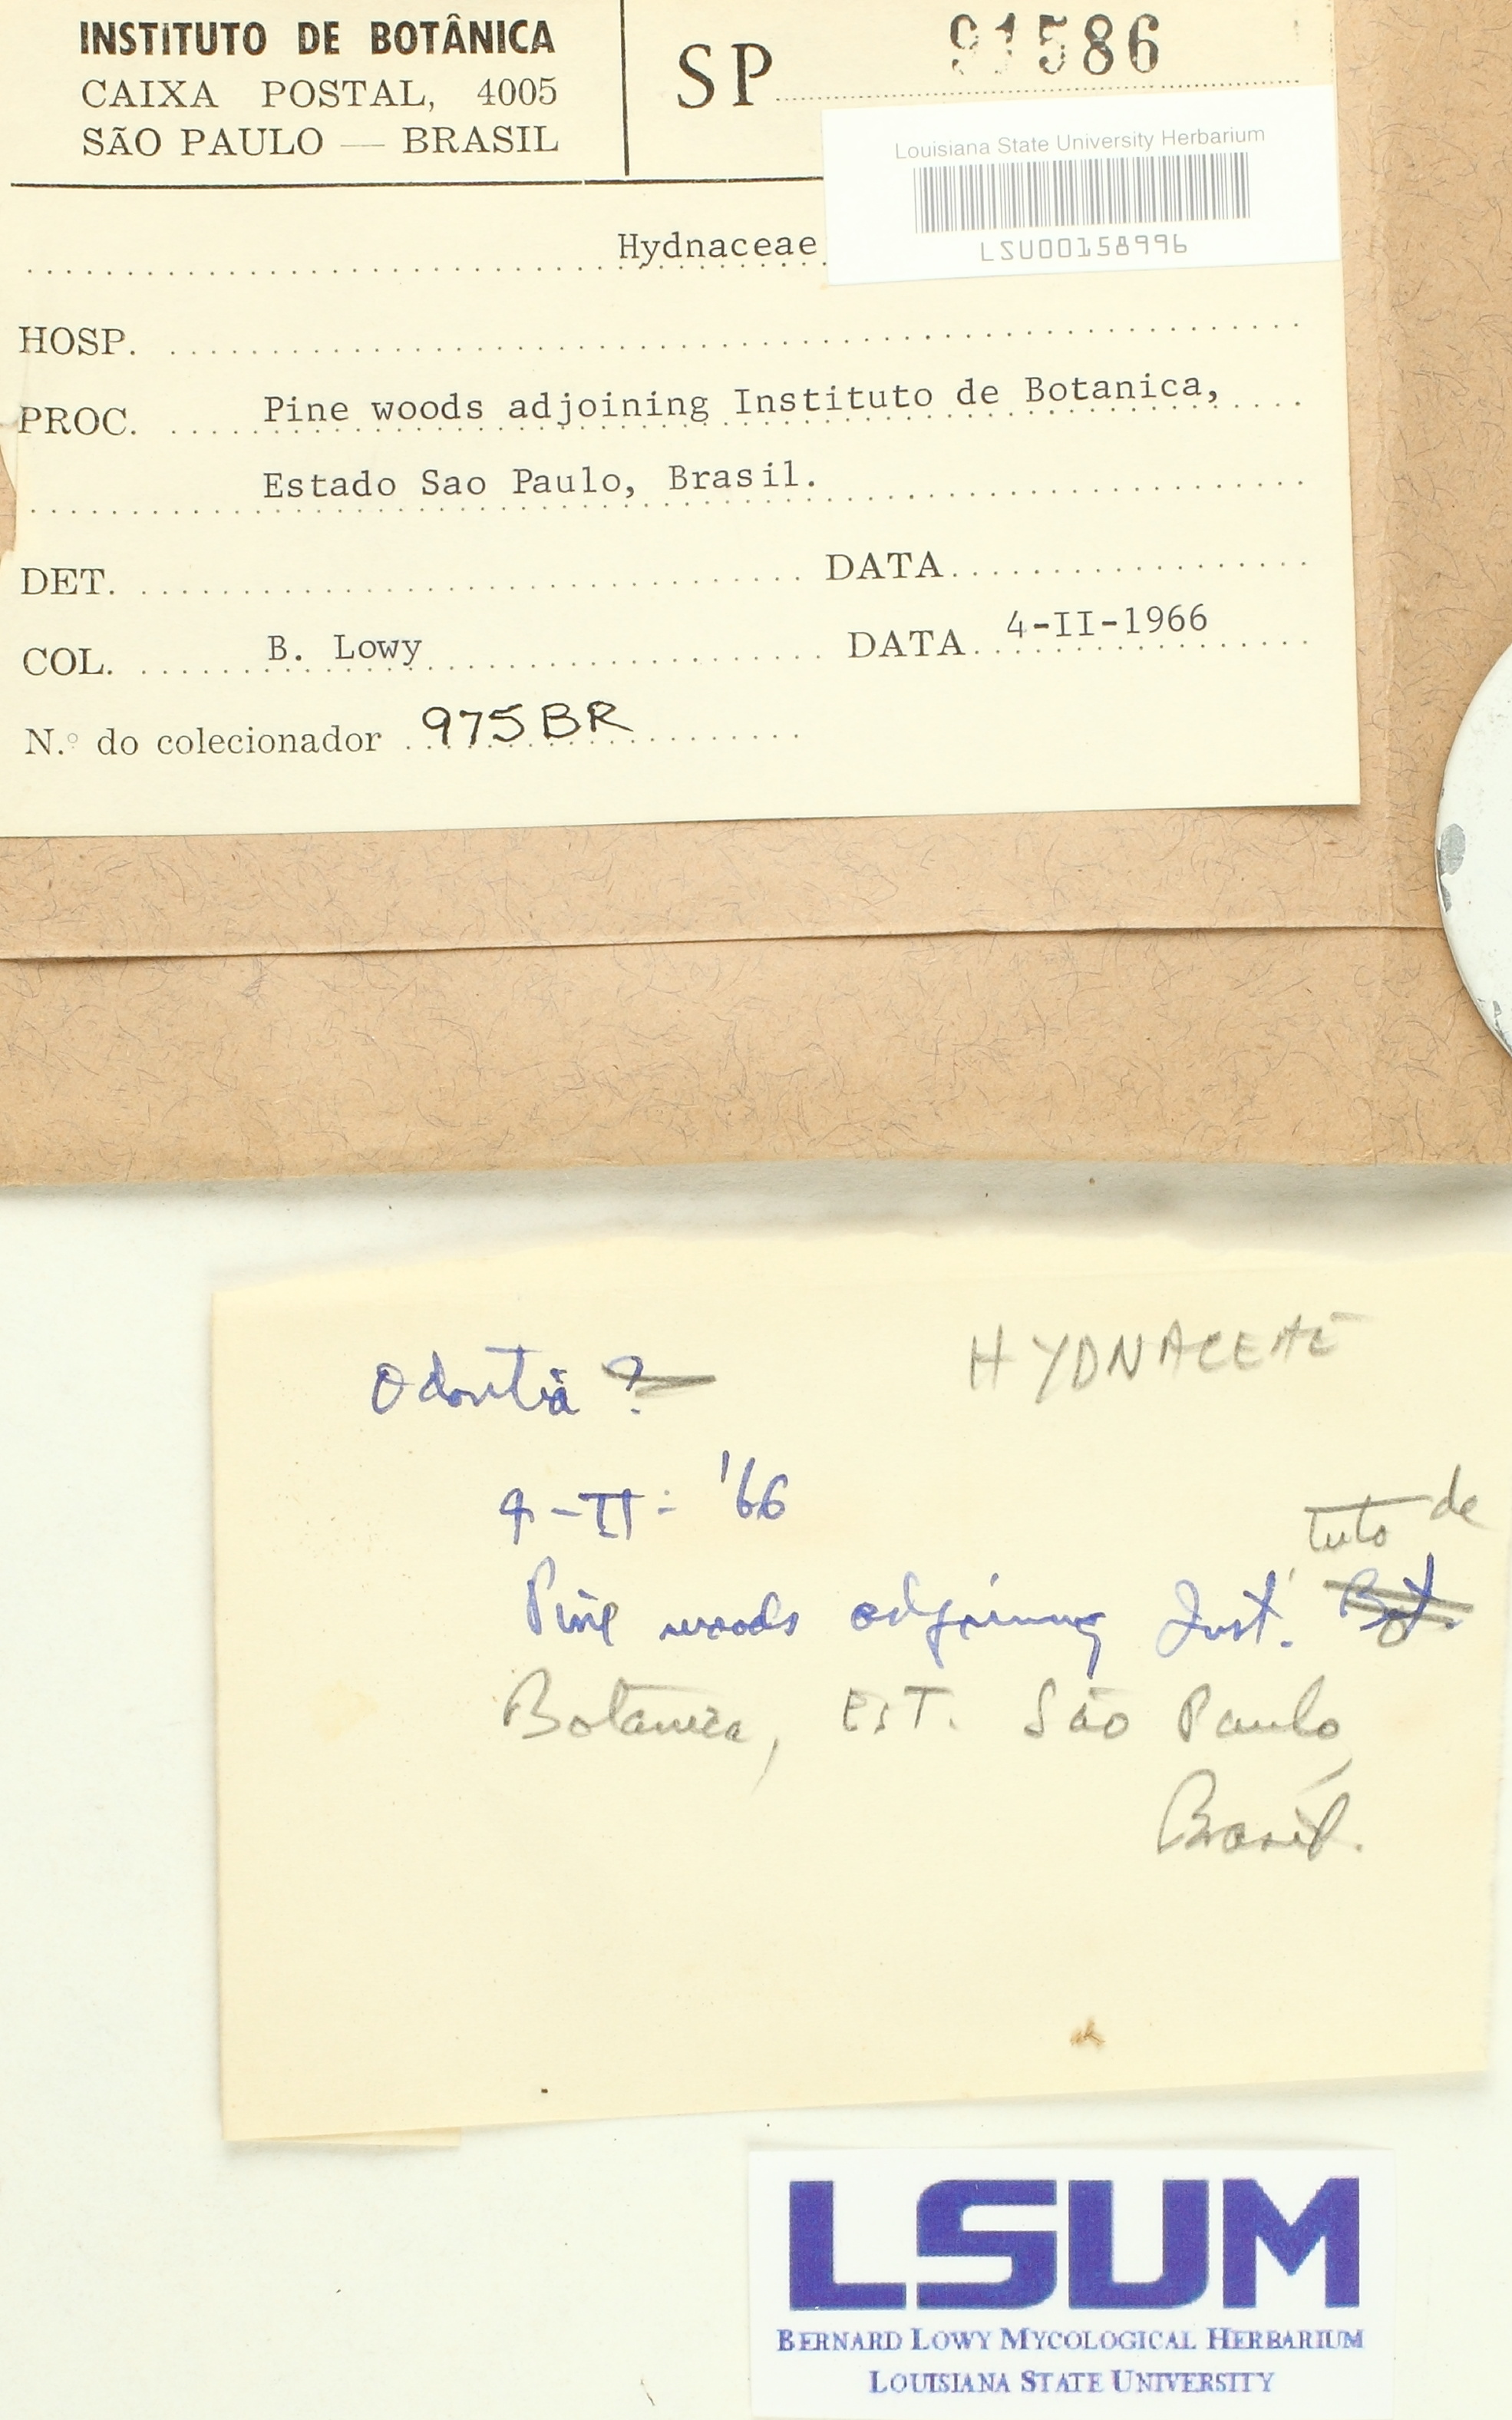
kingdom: Fungi
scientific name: Fungi
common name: Fungi
